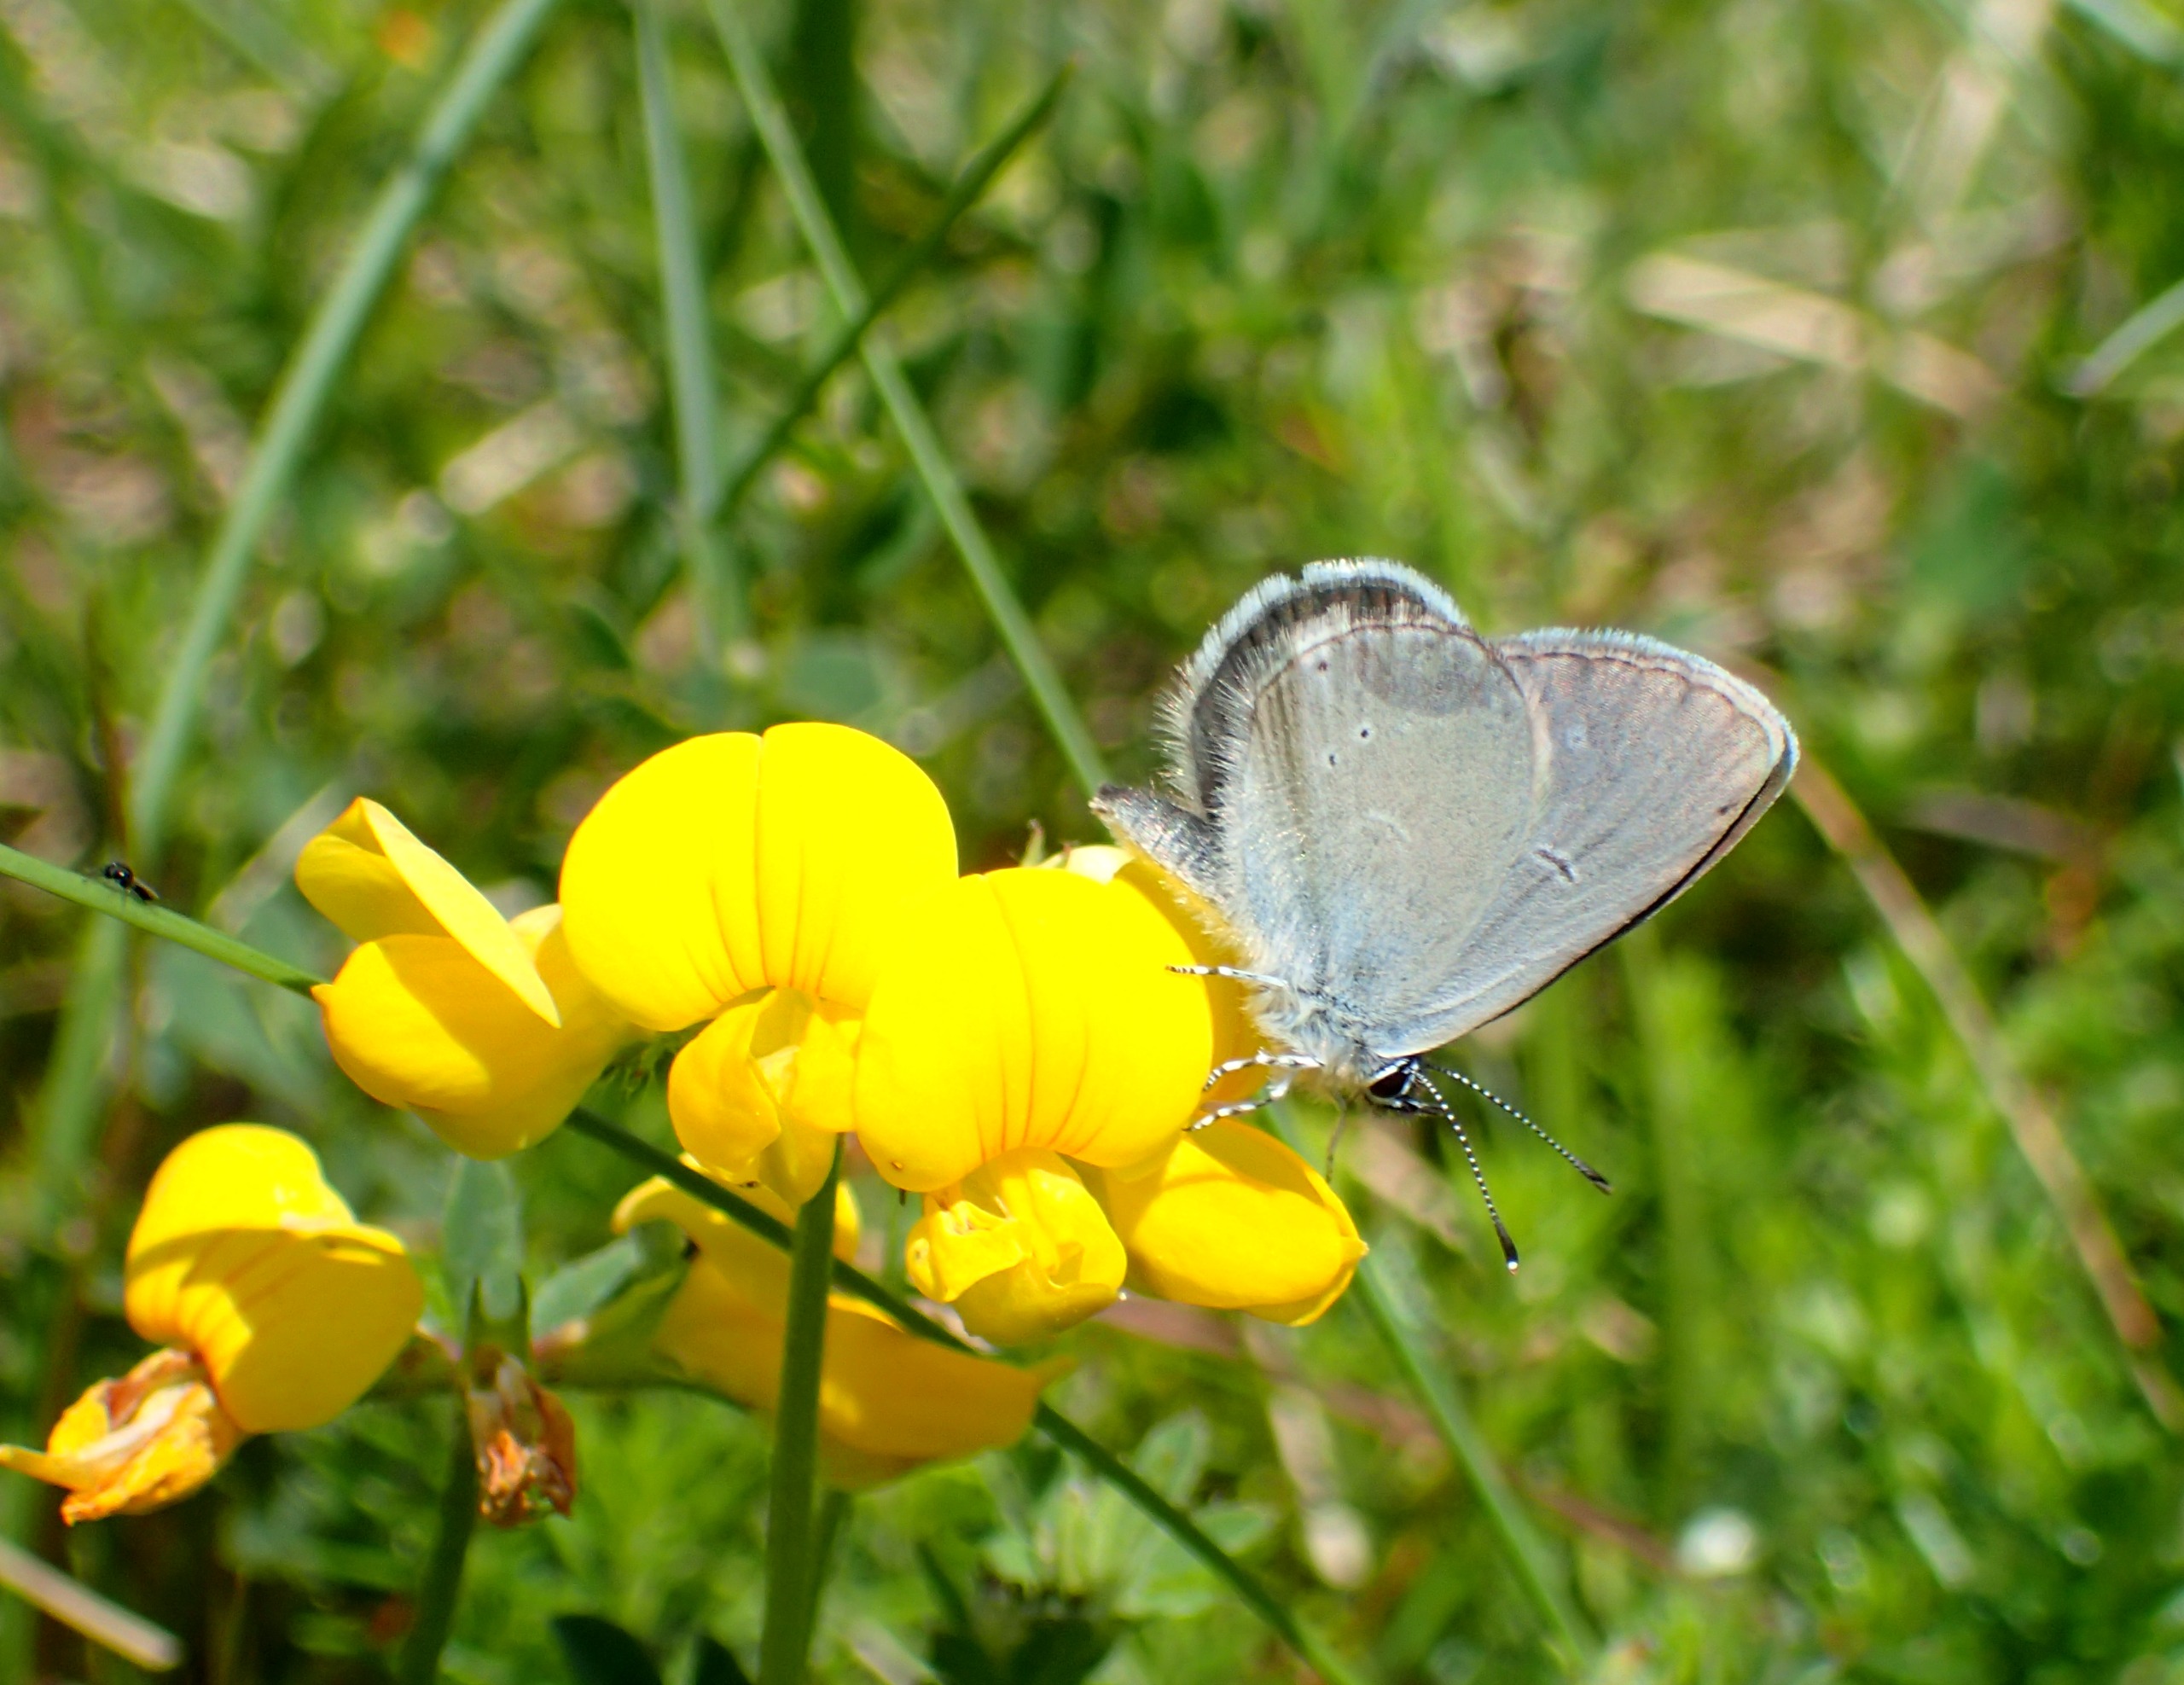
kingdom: Animalia
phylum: Arthropoda
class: Insecta
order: Lepidoptera
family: Lycaenidae
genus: Cupido
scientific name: Cupido minimus
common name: Dværgblåfugl
